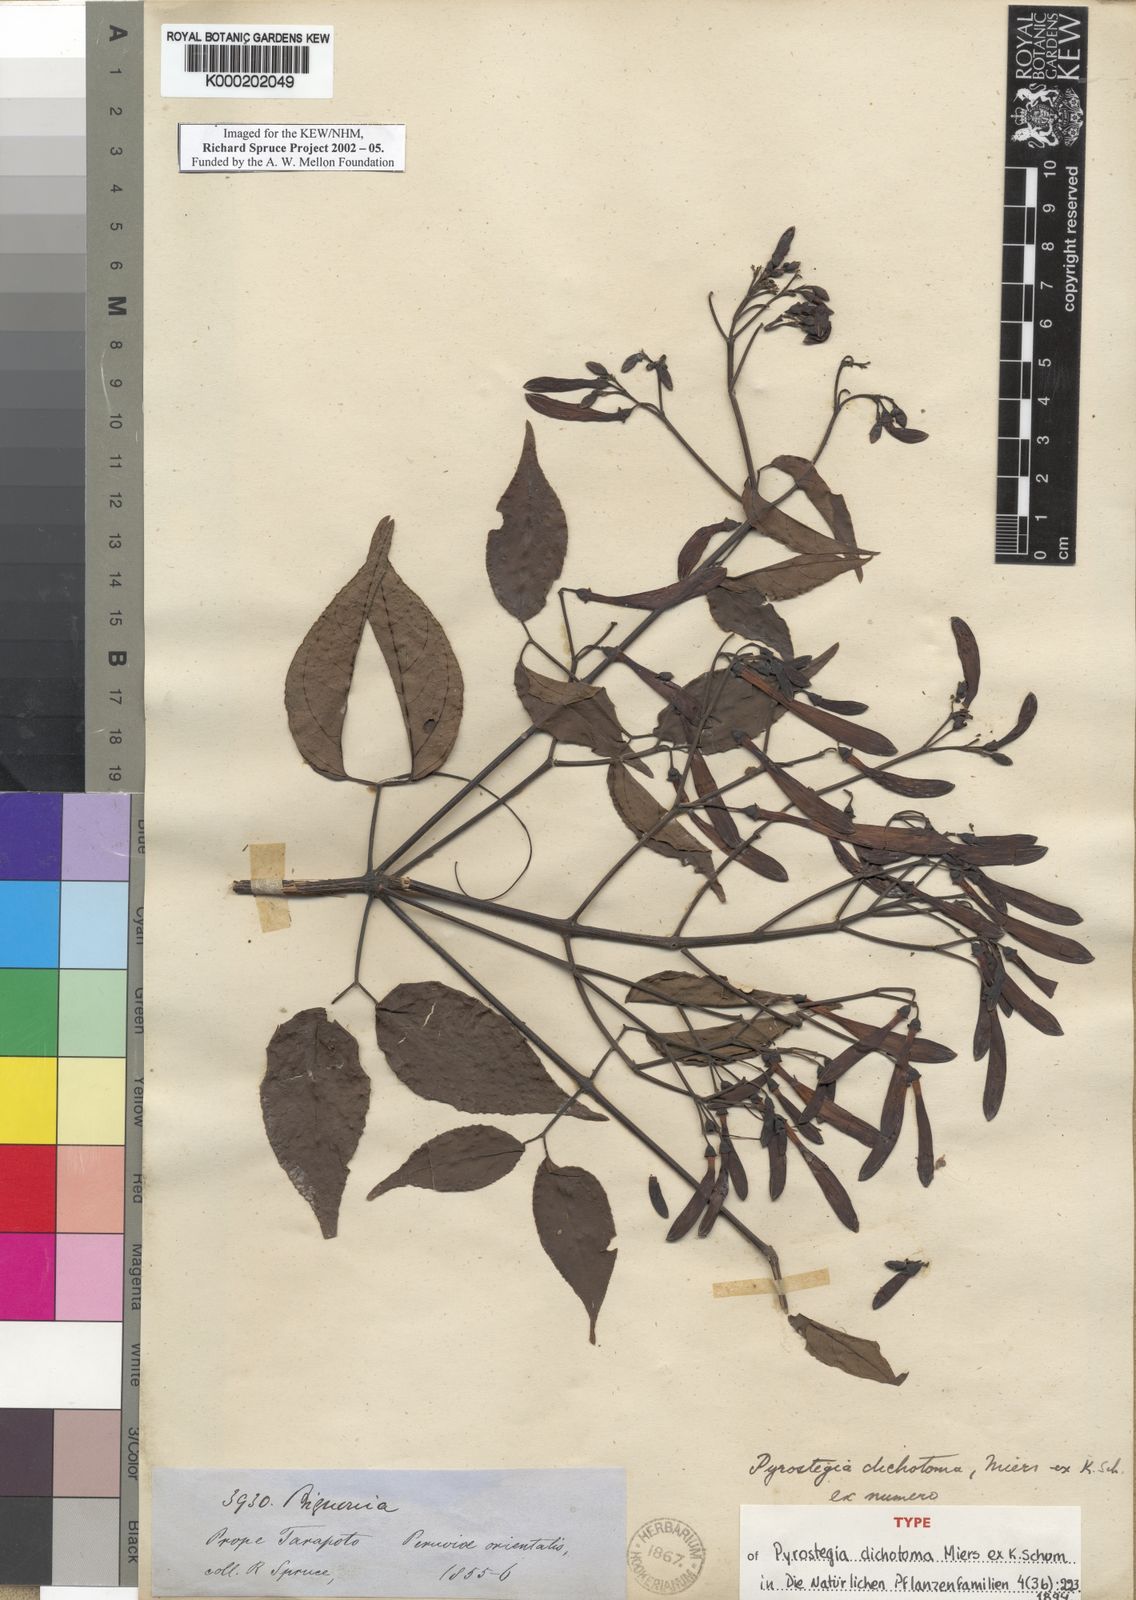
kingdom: Plantae
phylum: Tracheophyta
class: Magnoliopsida
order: Lamiales
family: Bignoniaceae
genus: Fridericia
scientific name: Fridericia florida
